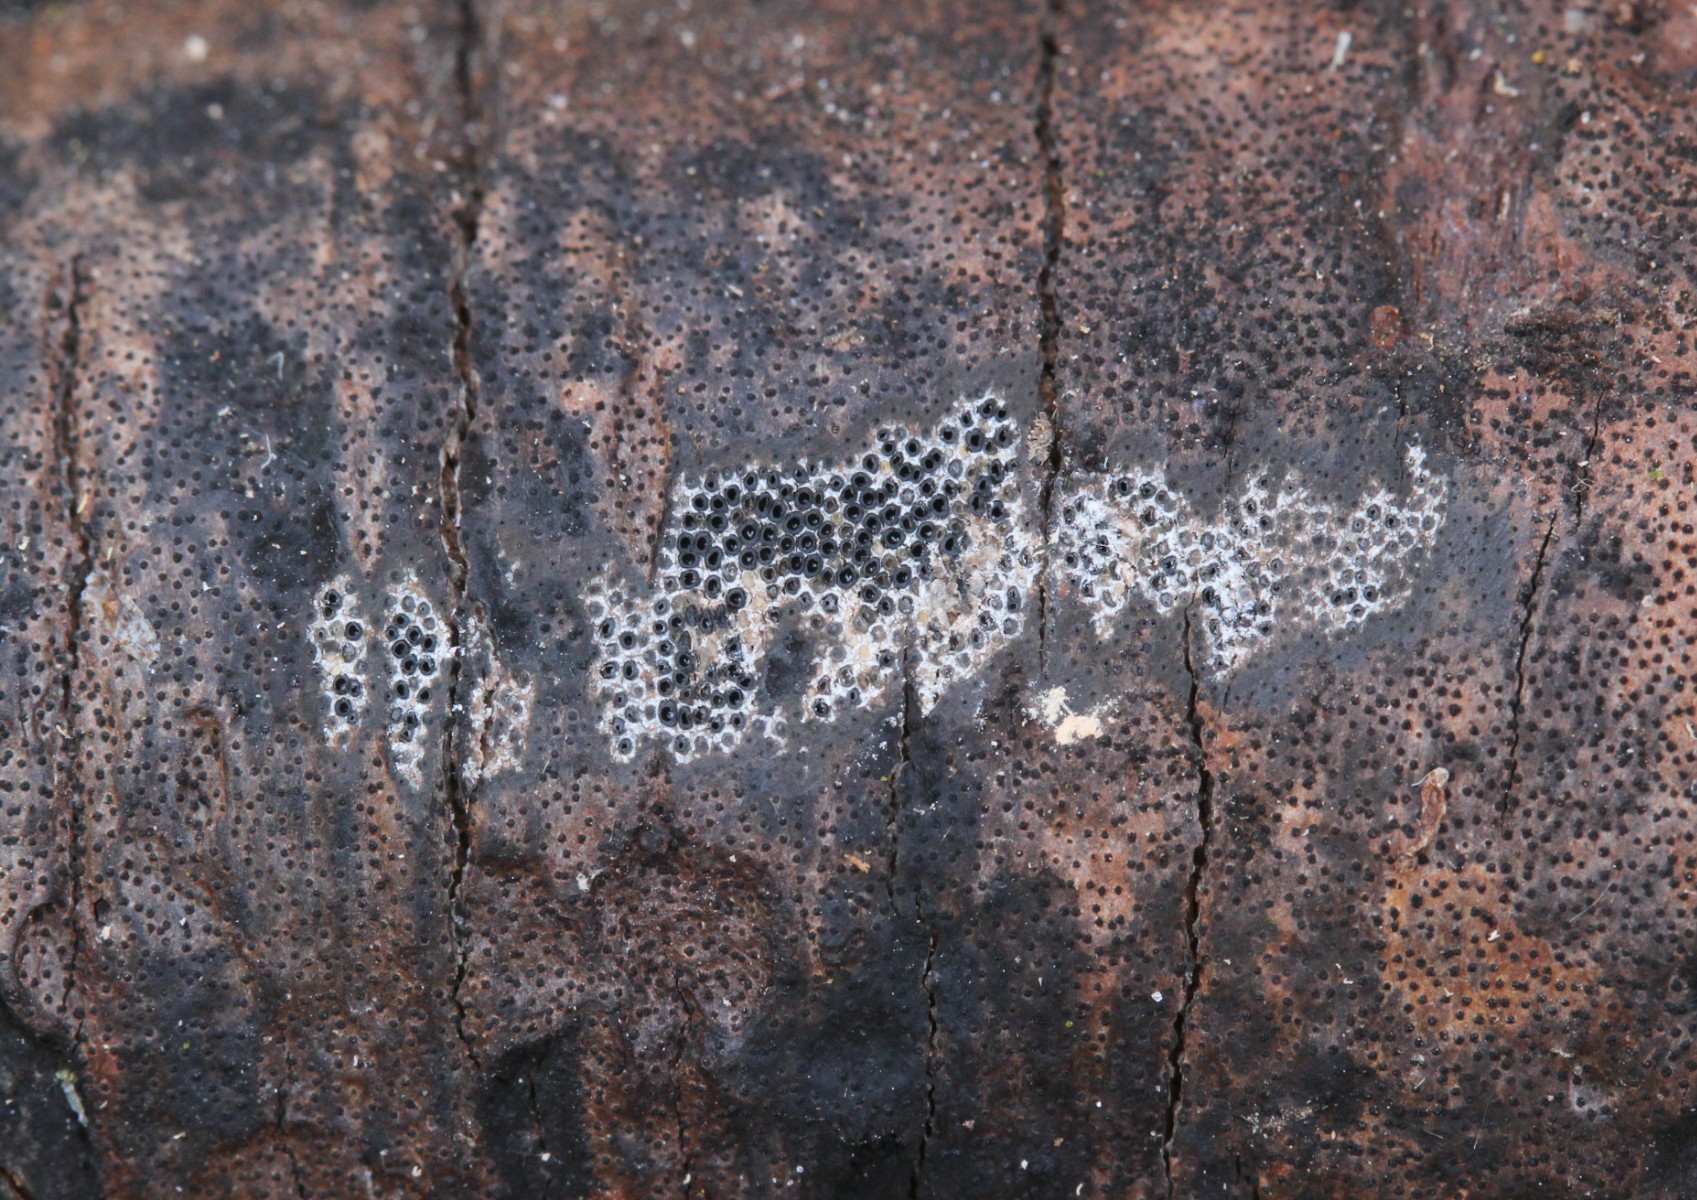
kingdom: Fungi
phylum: Ascomycota
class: Sordariomycetes
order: Xylariales
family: Diatrypaceae
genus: Diatrype
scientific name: Diatrype
